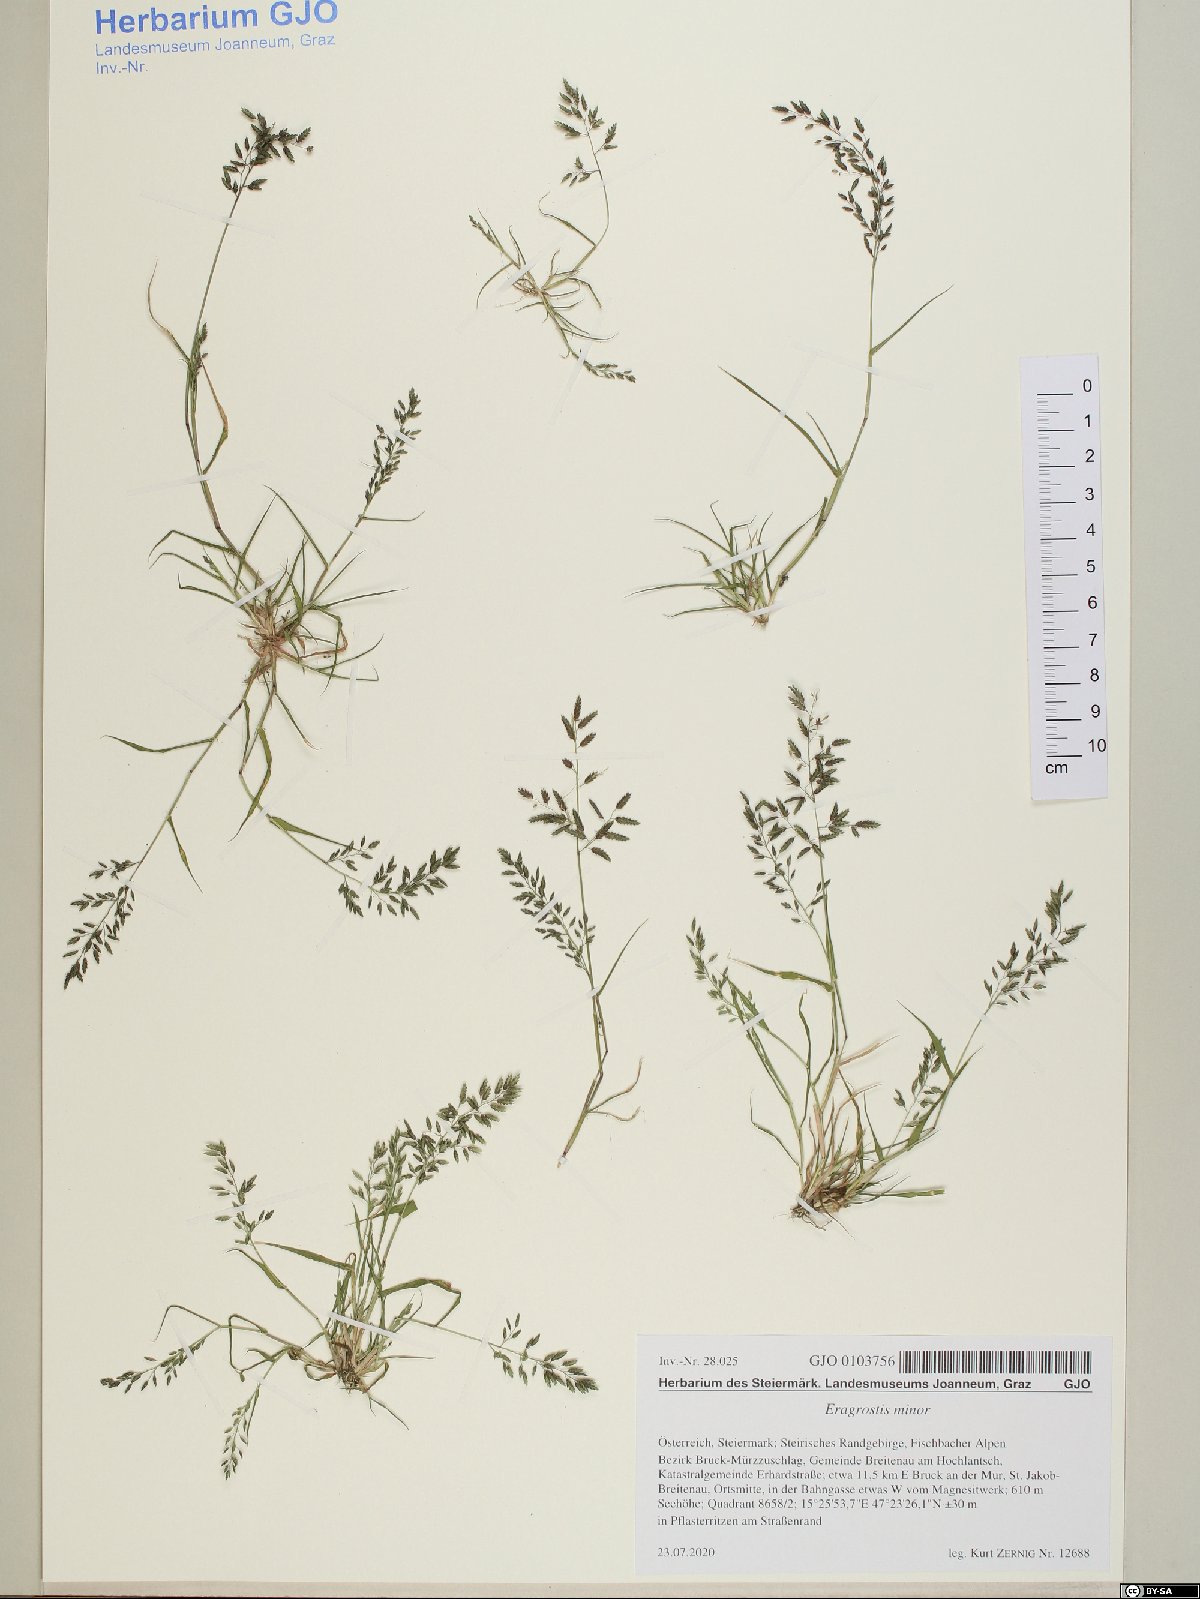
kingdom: Plantae
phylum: Tracheophyta
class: Liliopsida
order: Poales
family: Poaceae
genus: Eragrostis
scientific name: Eragrostis minor
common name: Small love-grass
